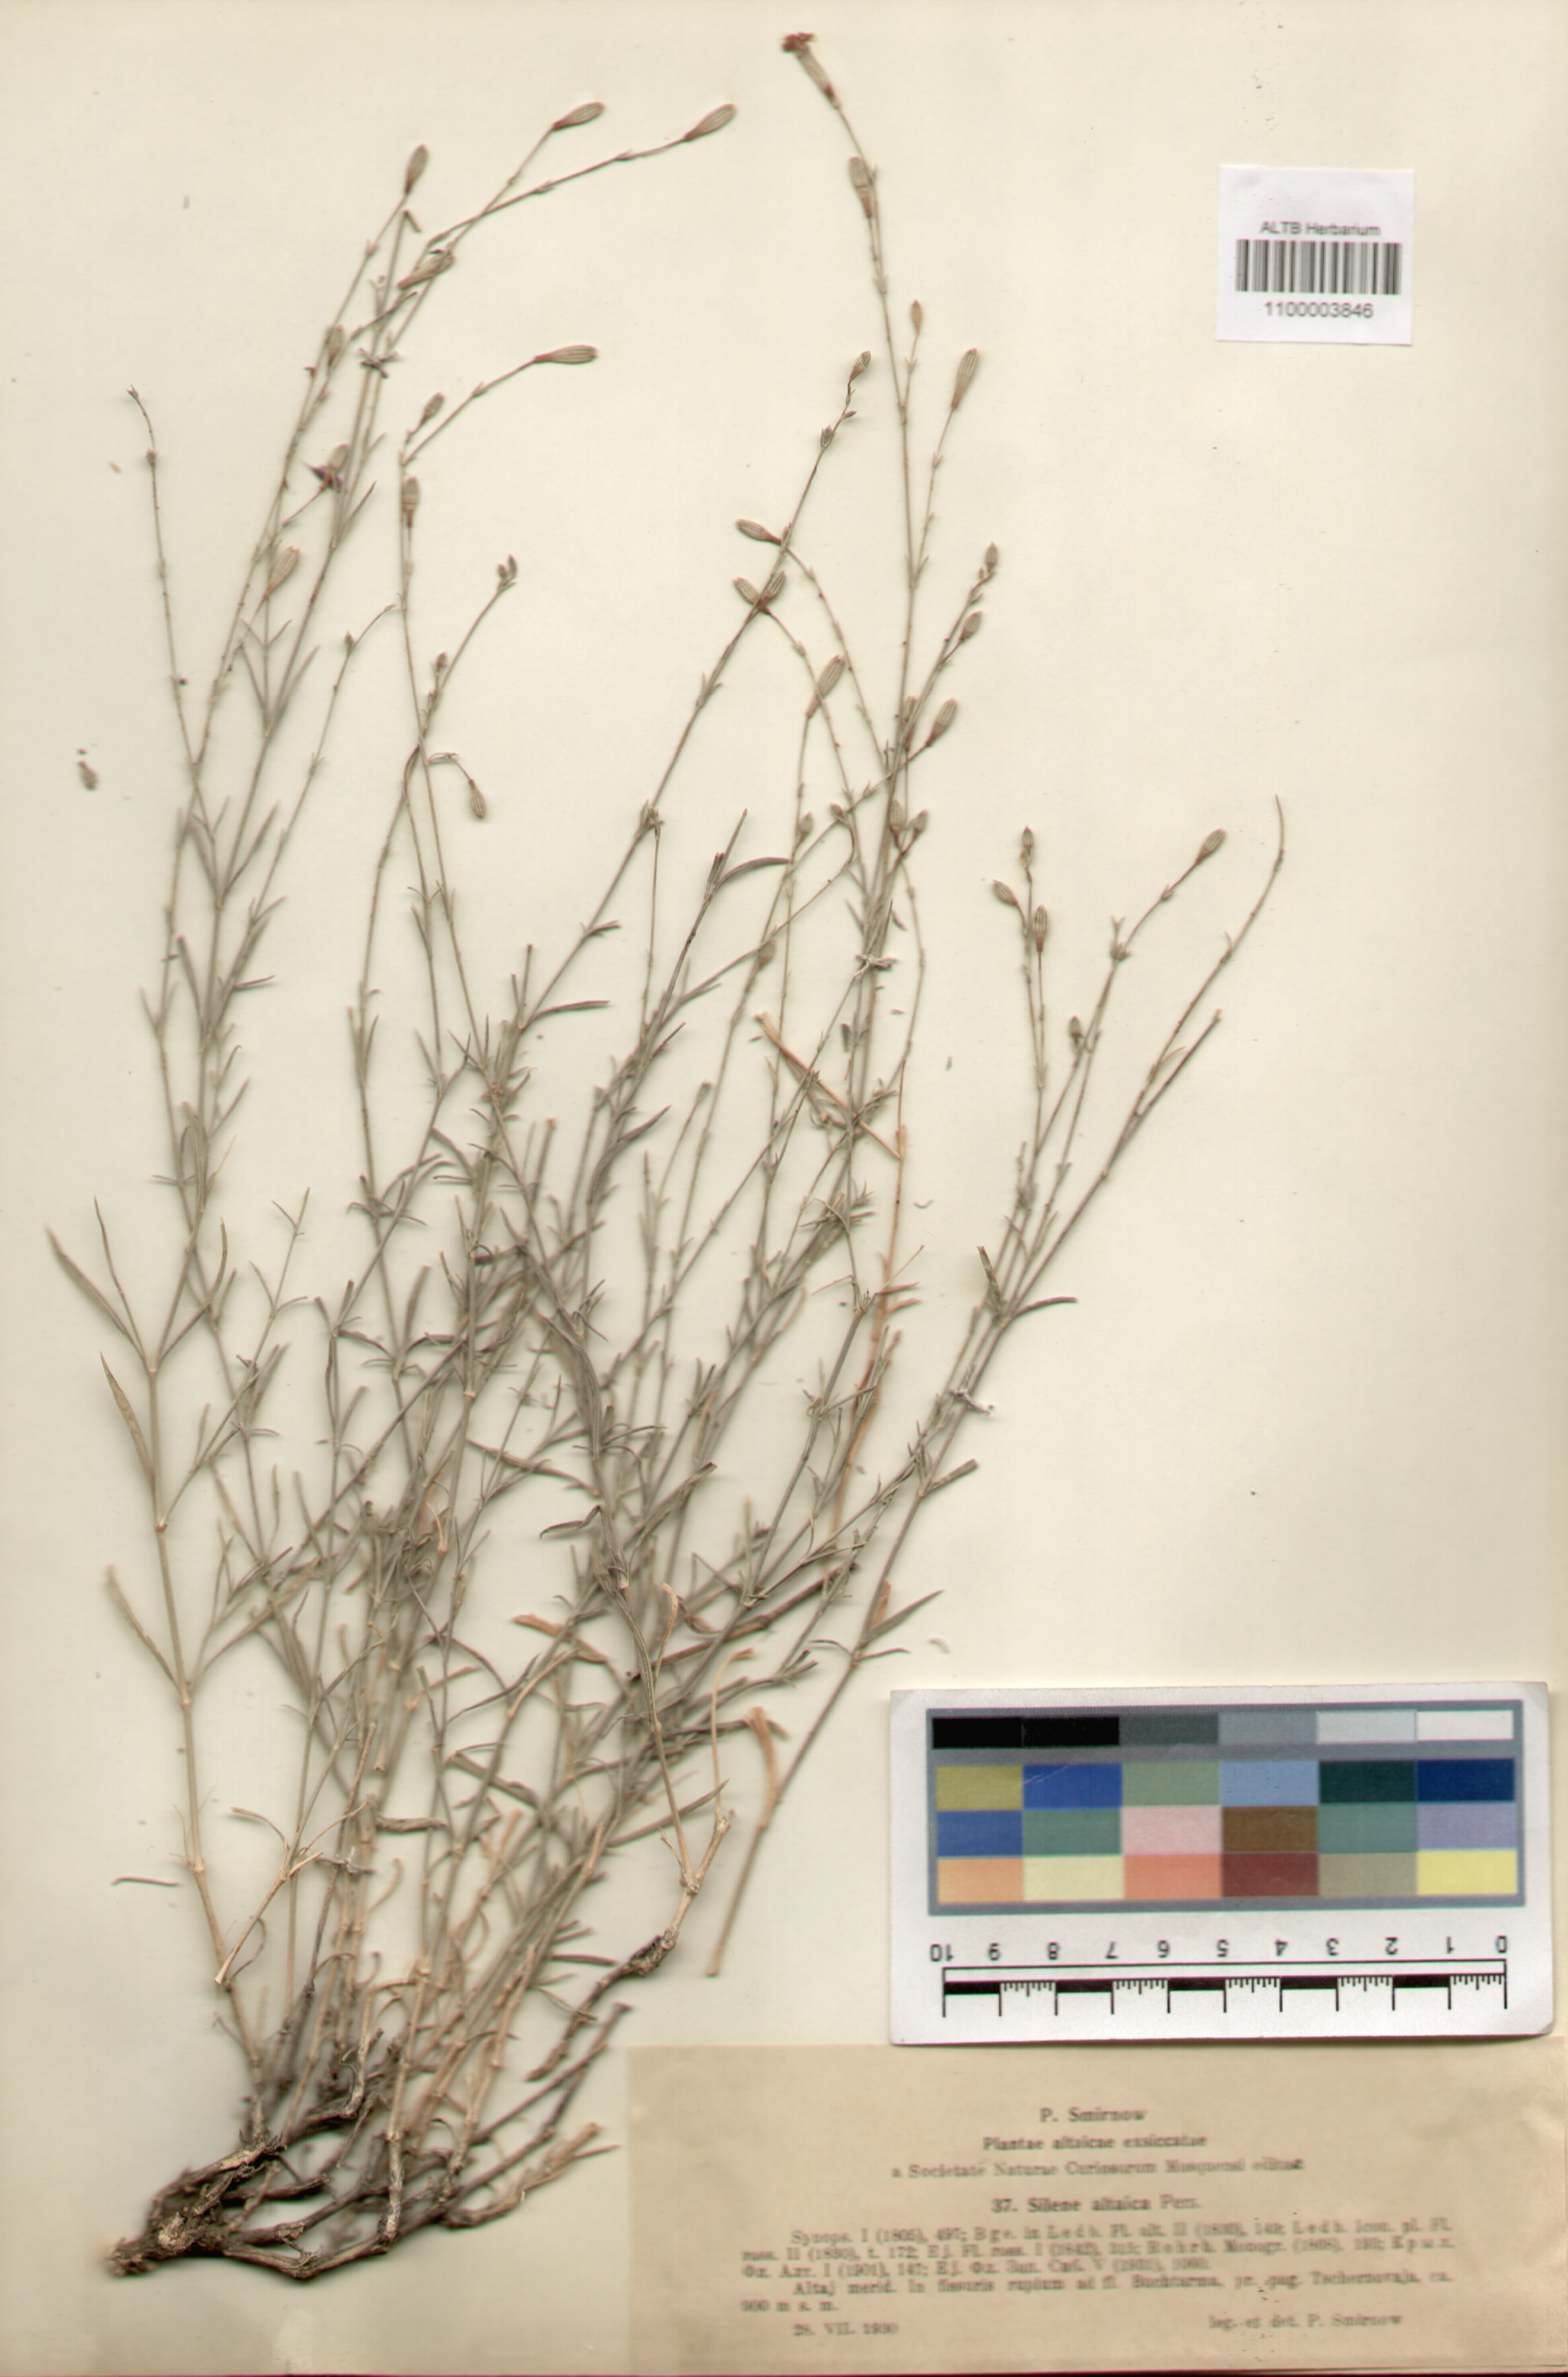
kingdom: Plantae
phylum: Tracheophyta
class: Magnoliopsida
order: Caryophyllales
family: Caryophyllaceae
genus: Silene
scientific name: Silene altaica
